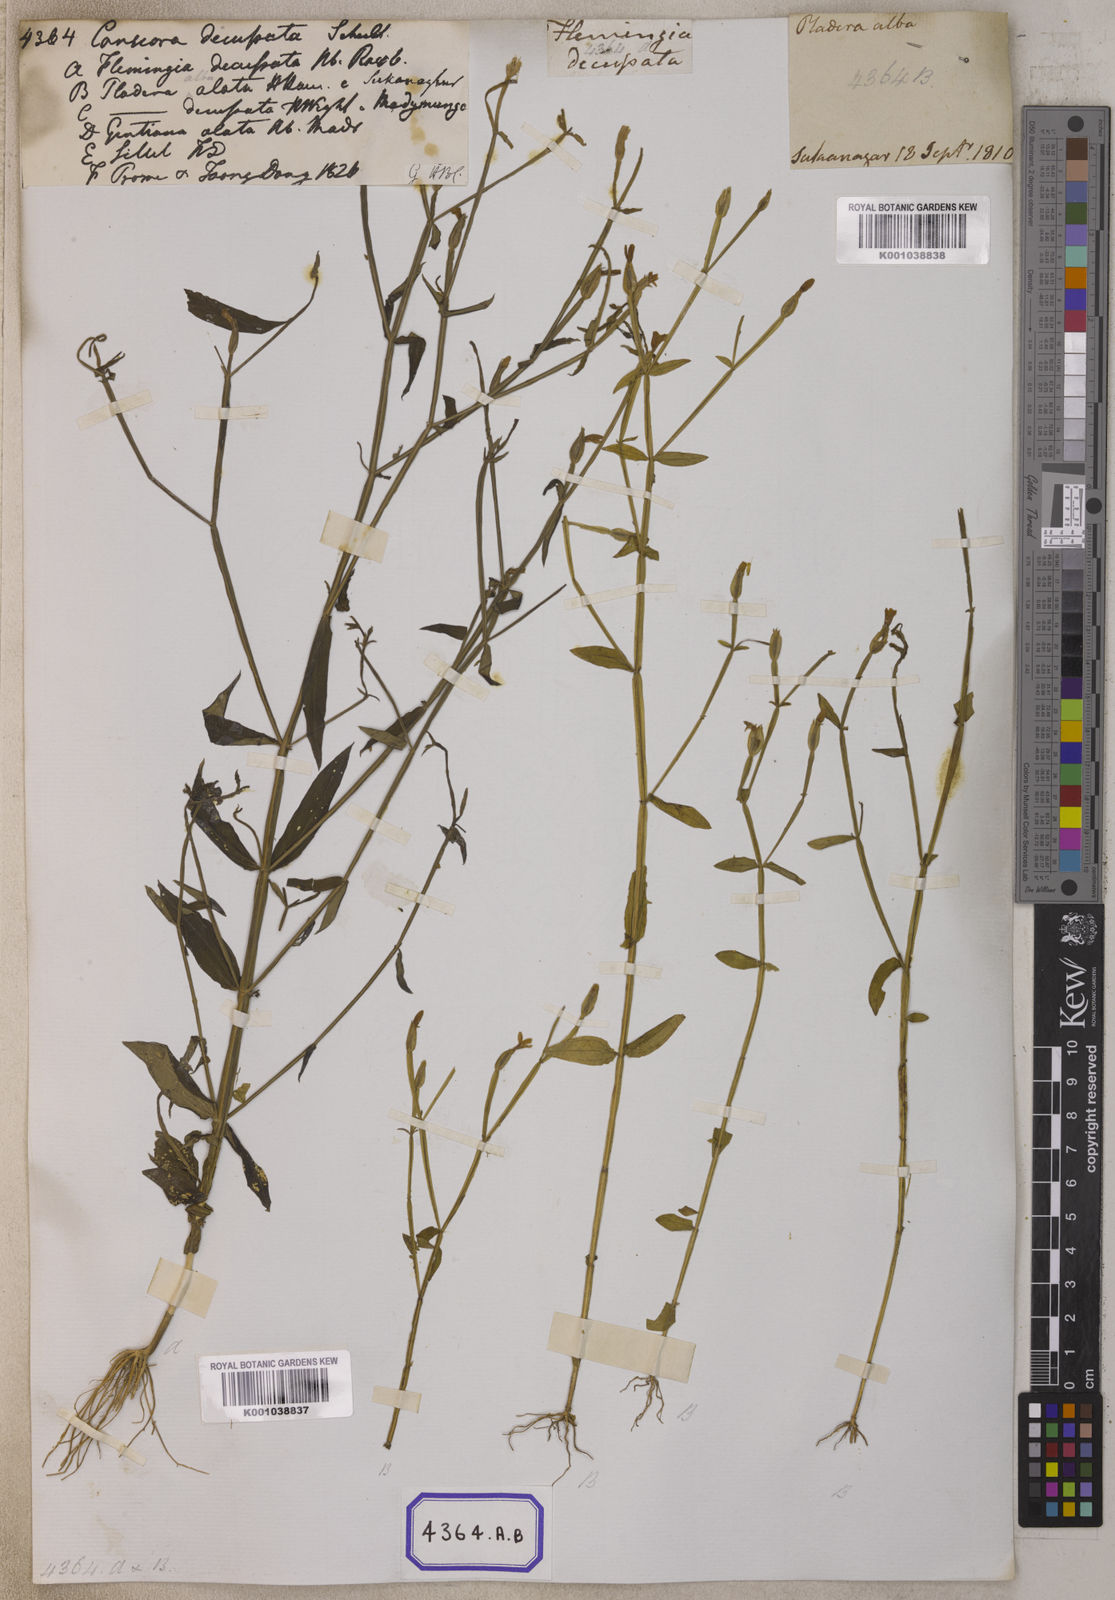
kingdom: Plantae
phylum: Tracheophyta
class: Magnoliopsida
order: Gentianales
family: Gentianaceae
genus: Canscora
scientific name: Canscora alata
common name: Canscora
